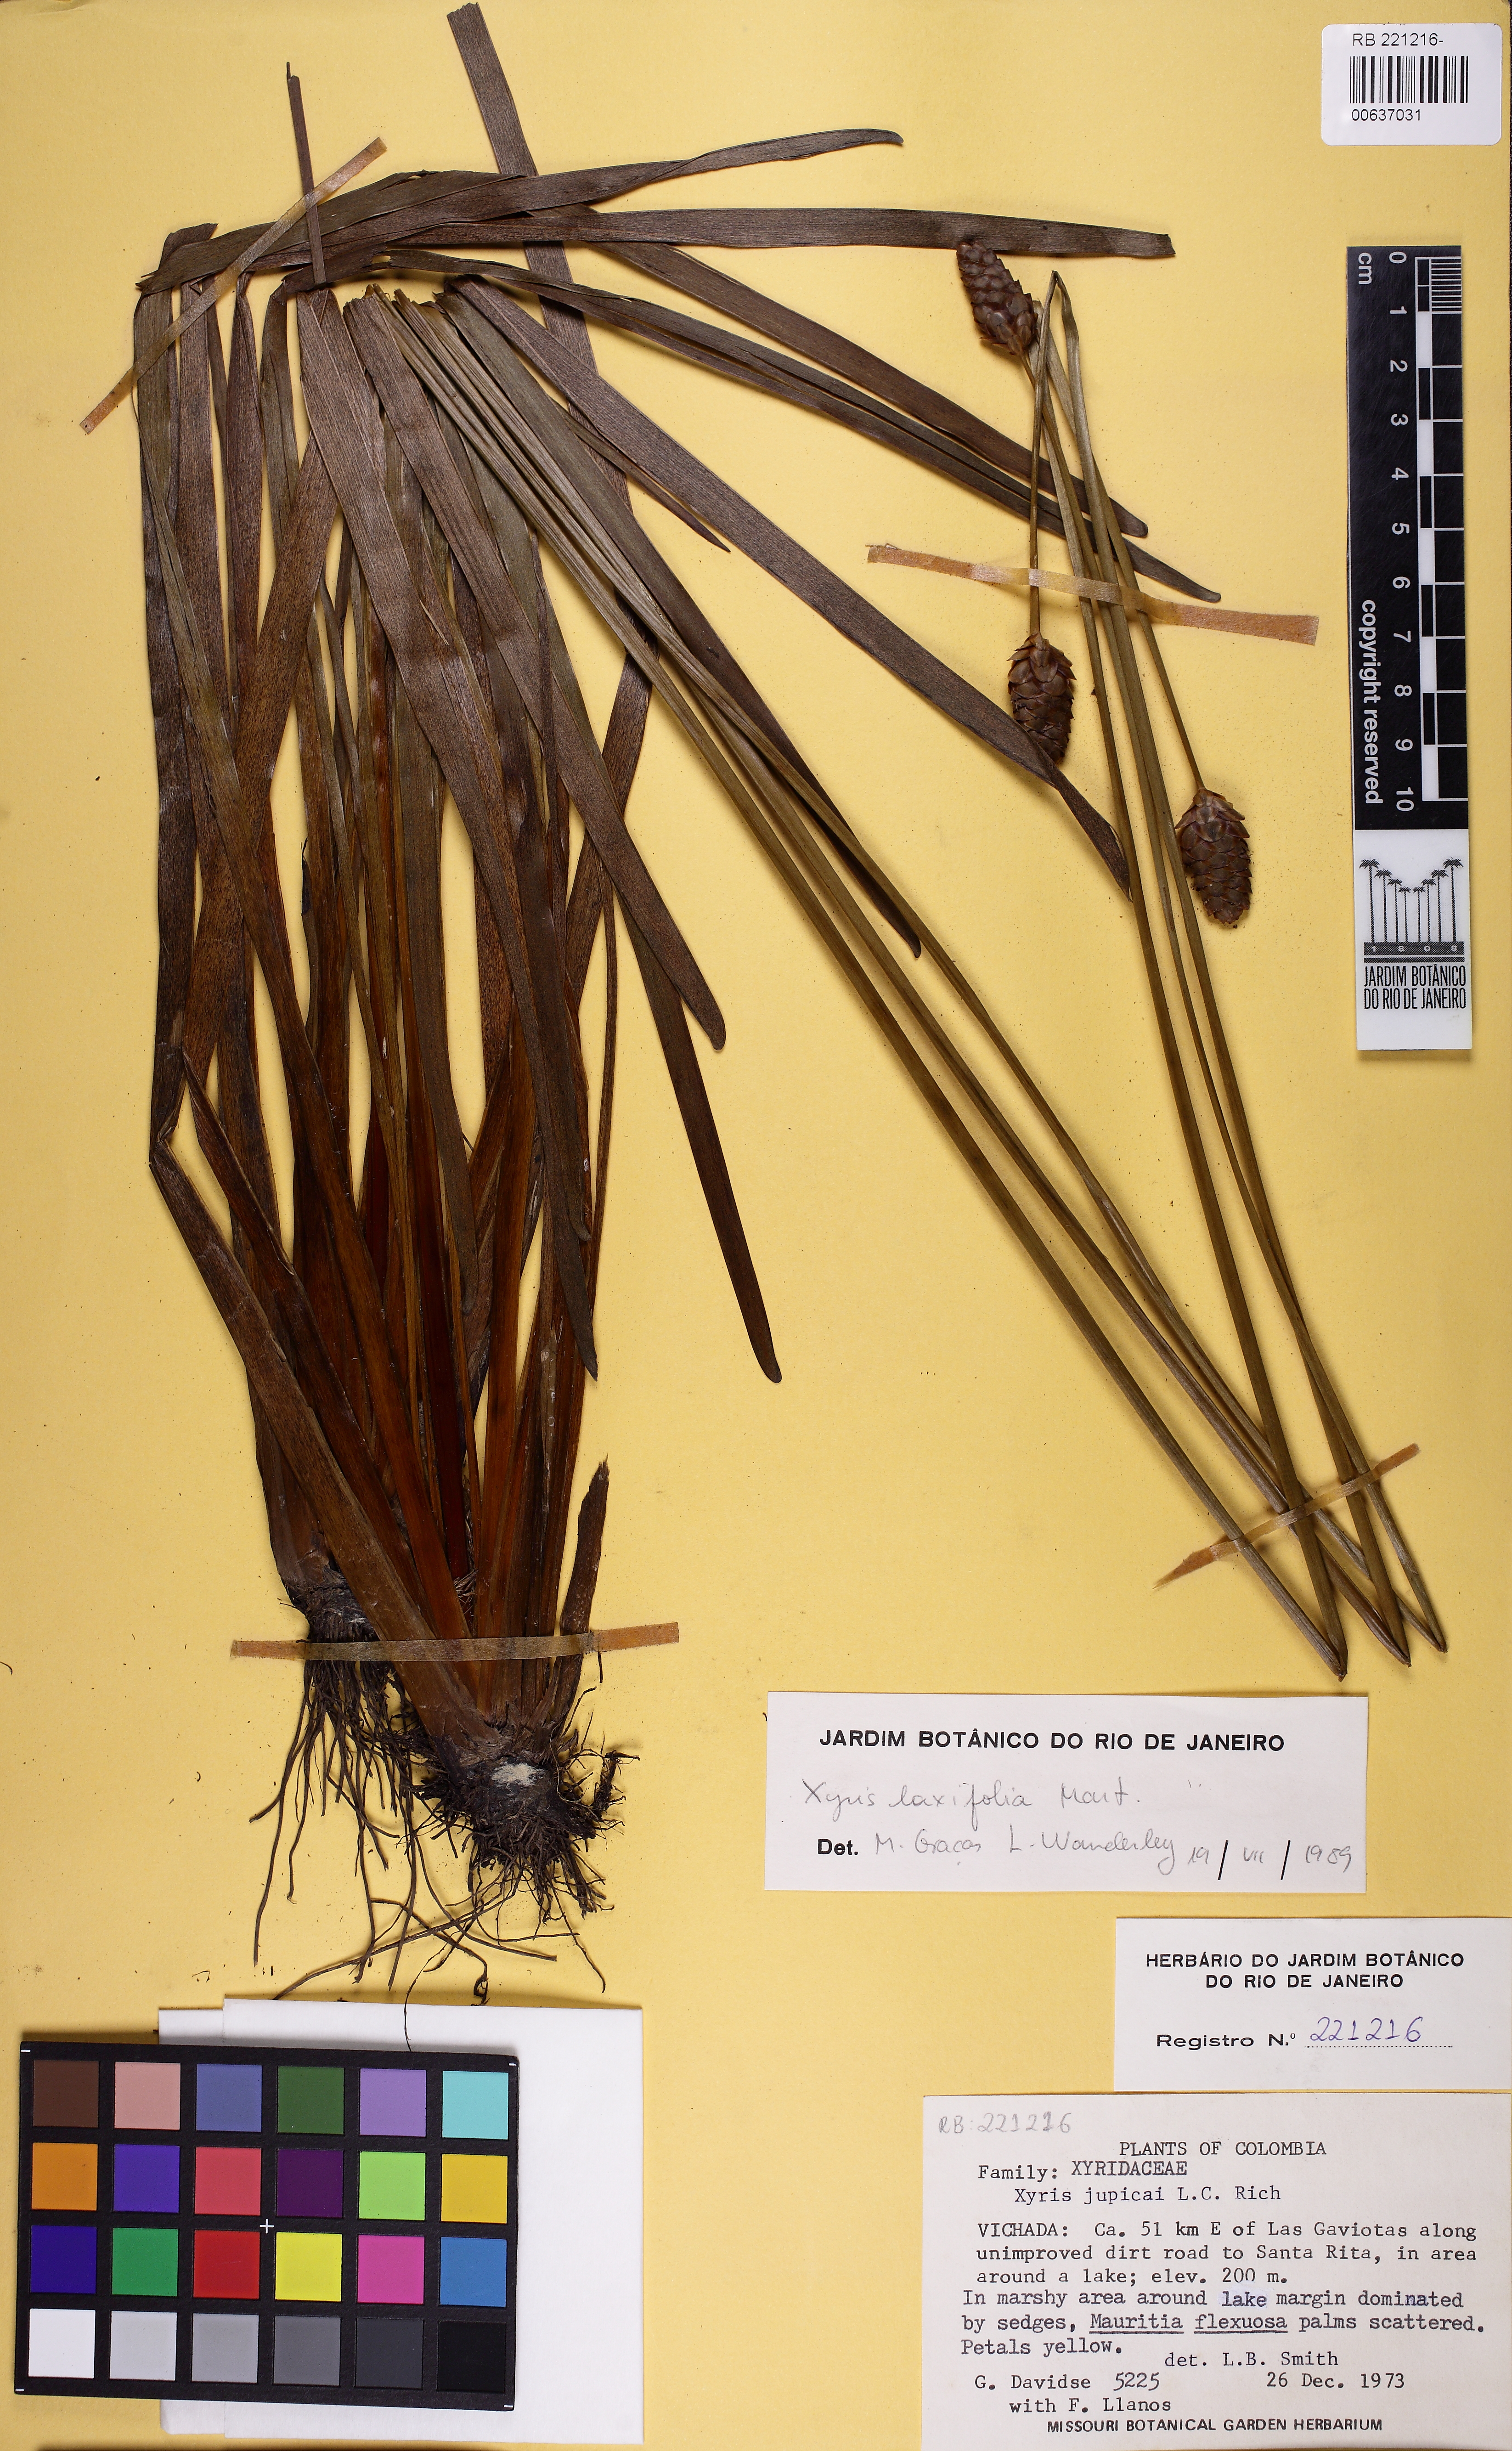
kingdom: Plantae
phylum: Tracheophyta
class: Liliopsida
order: Poales
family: Xyridaceae
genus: Xyris
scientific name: Xyris jupicai
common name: Richard's yelloweyed grass
